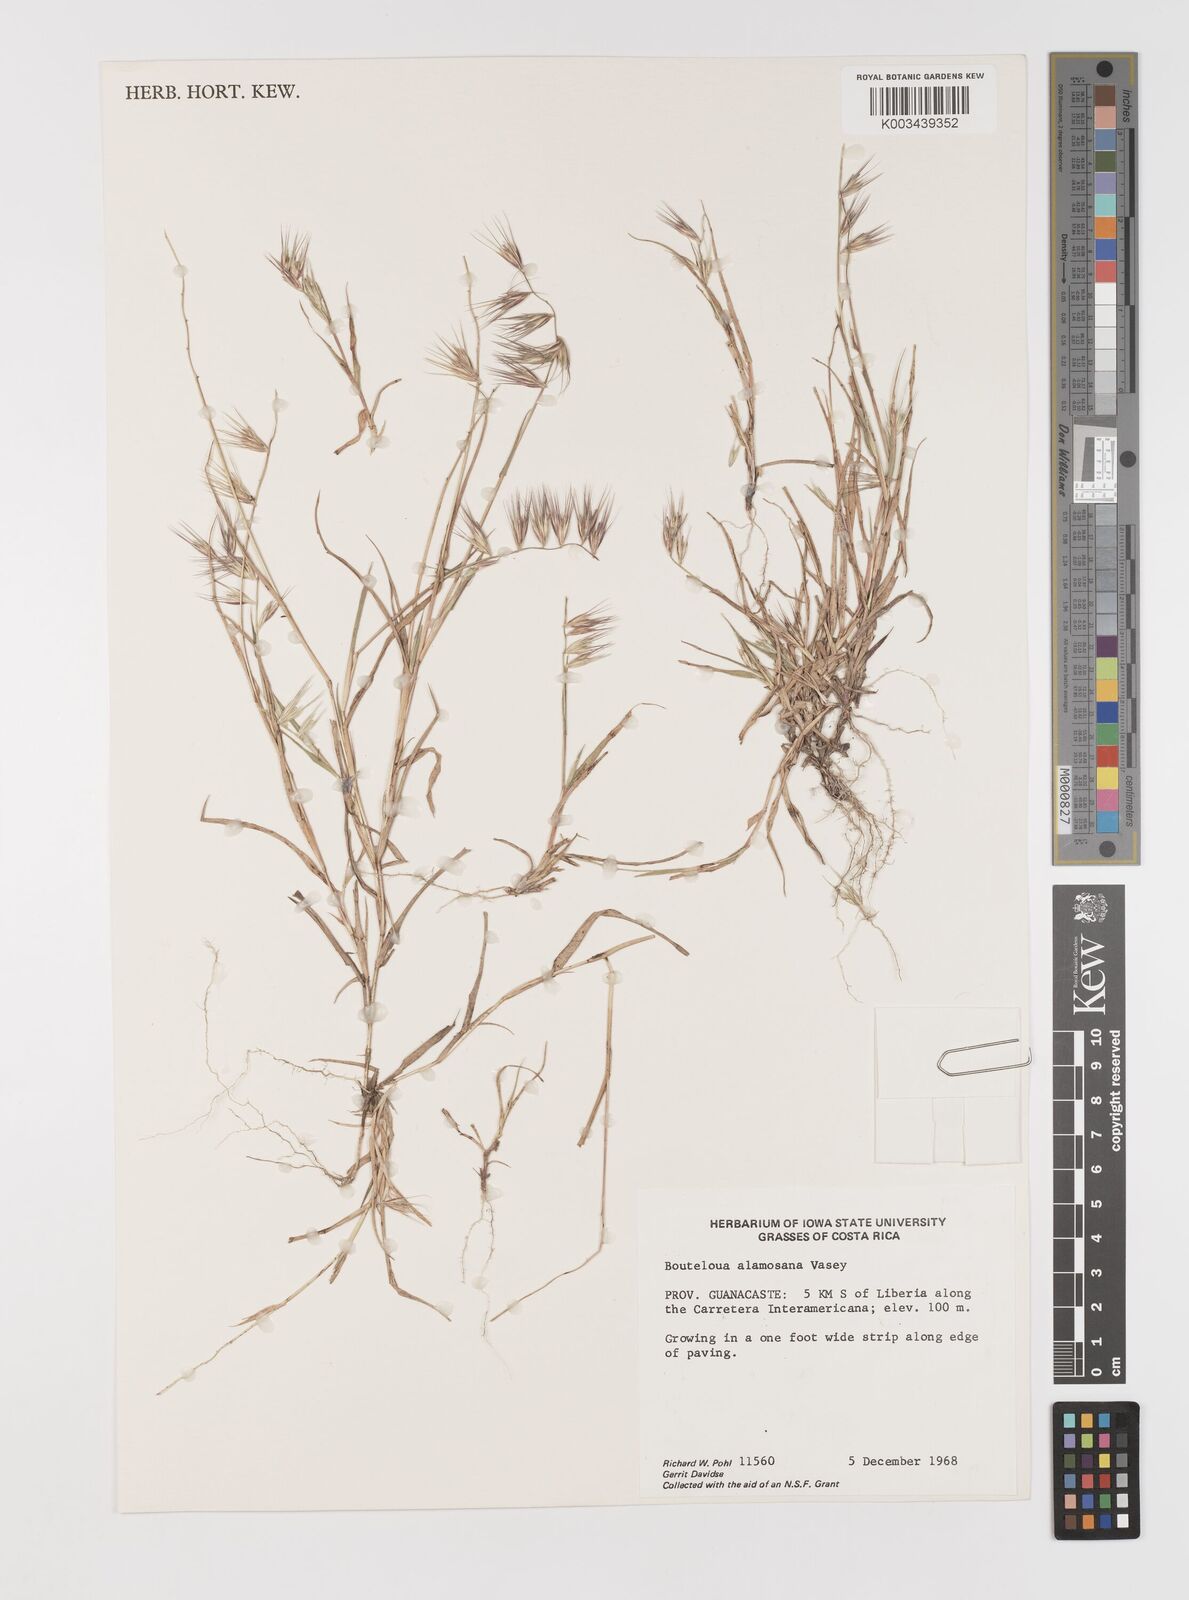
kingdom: Plantae
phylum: Tracheophyta
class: Liliopsida
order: Poales
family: Poaceae
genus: Bouteloua
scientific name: Bouteloua alamosana
